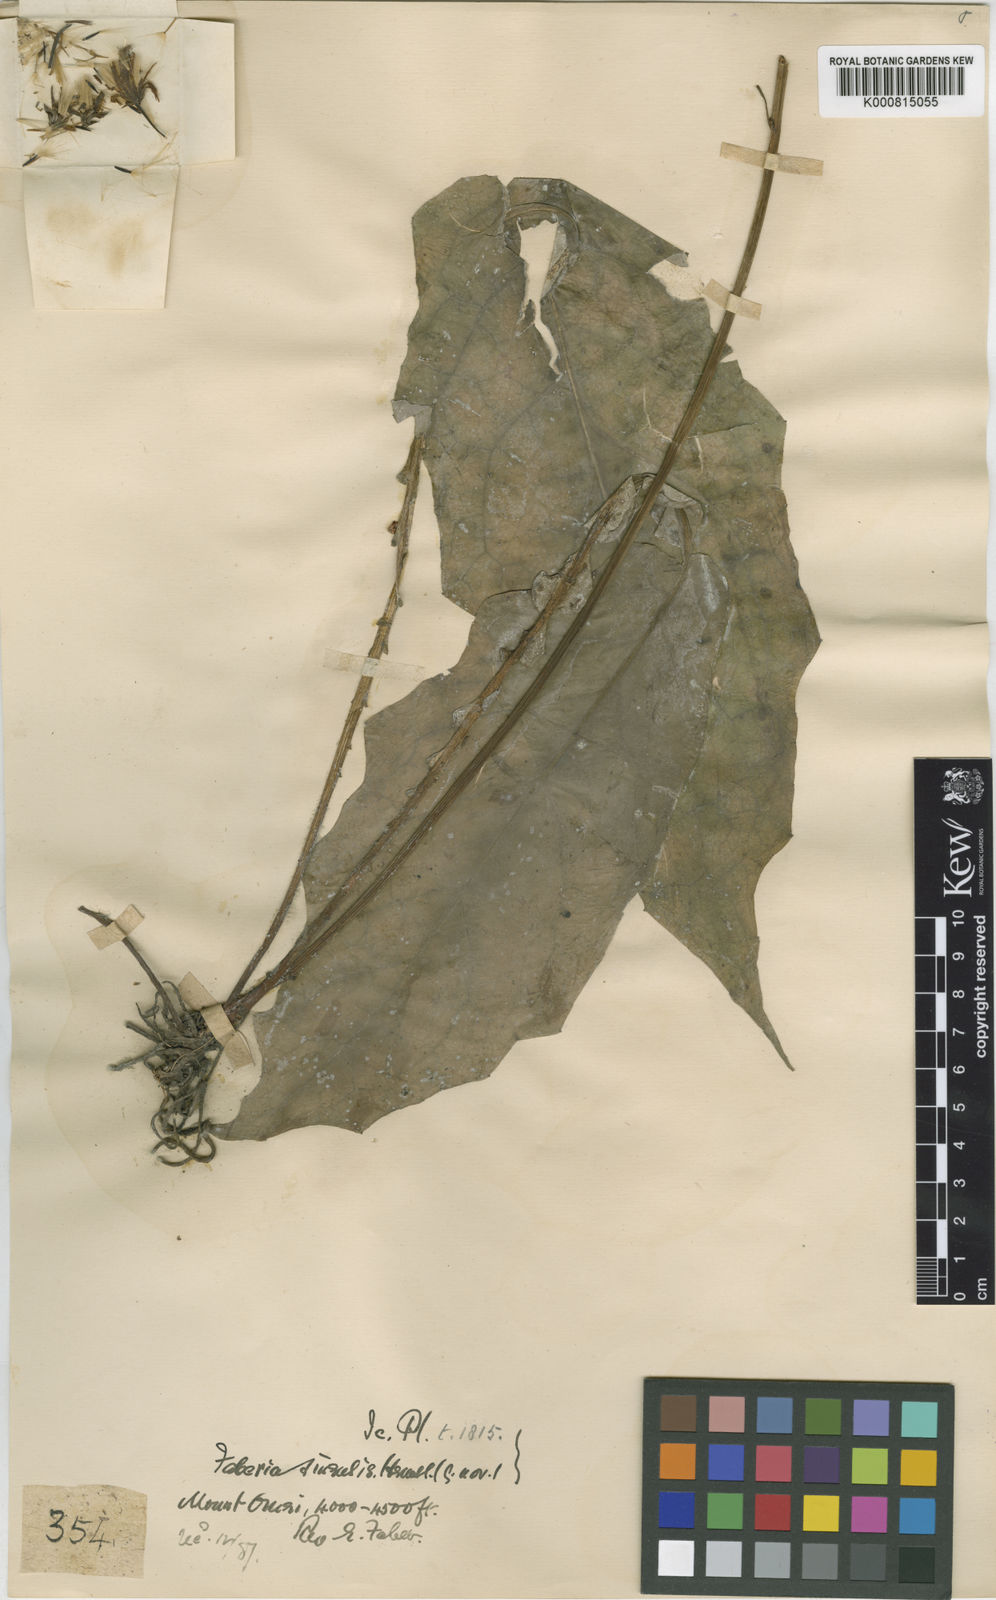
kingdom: Plantae
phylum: Tracheophyta
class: Magnoliopsida
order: Asterales
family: Asteraceae
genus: Prenanthes
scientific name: Prenanthes
